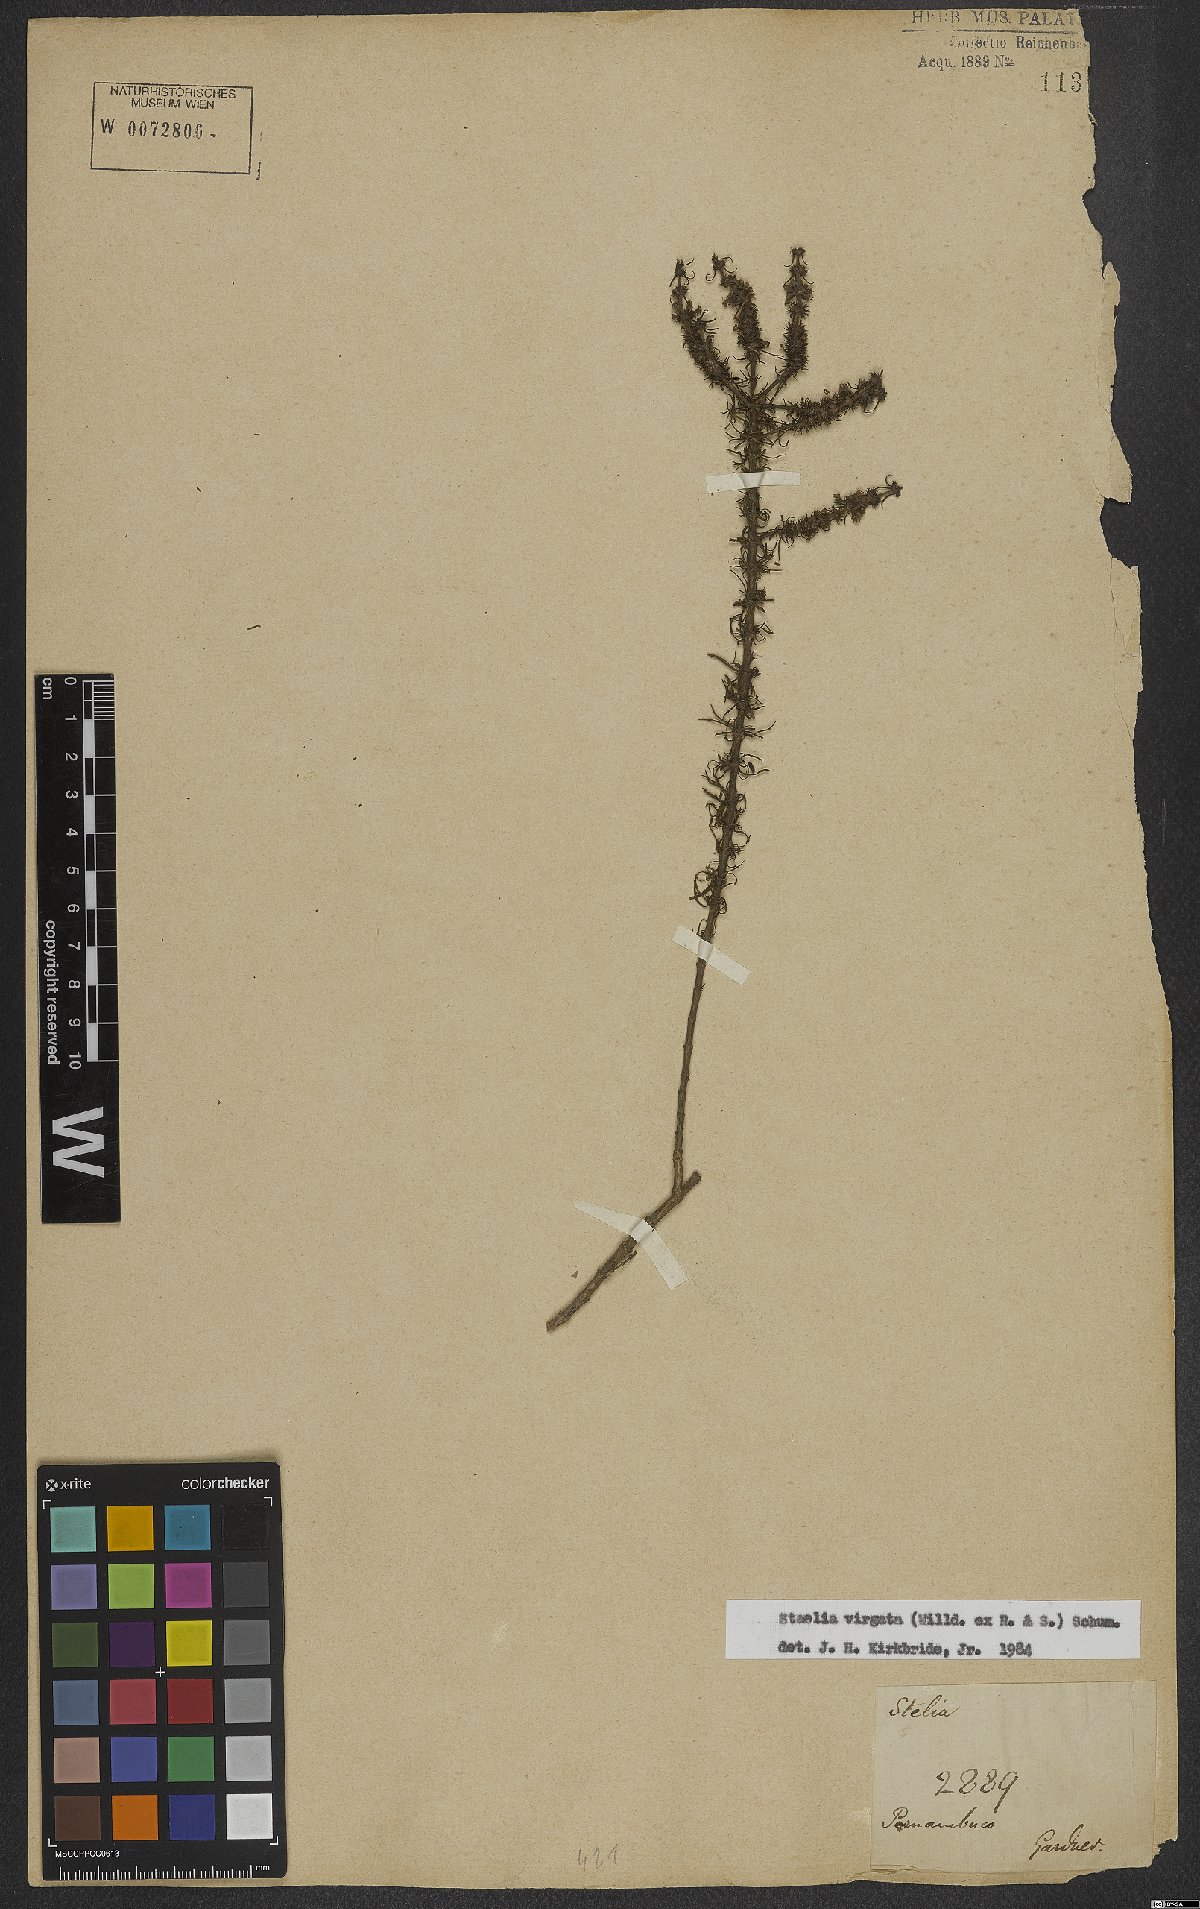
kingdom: Plantae
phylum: Tracheophyta
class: Magnoliopsida
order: Gentianales
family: Rubiaceae
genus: Staelia
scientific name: Staelia virgata
